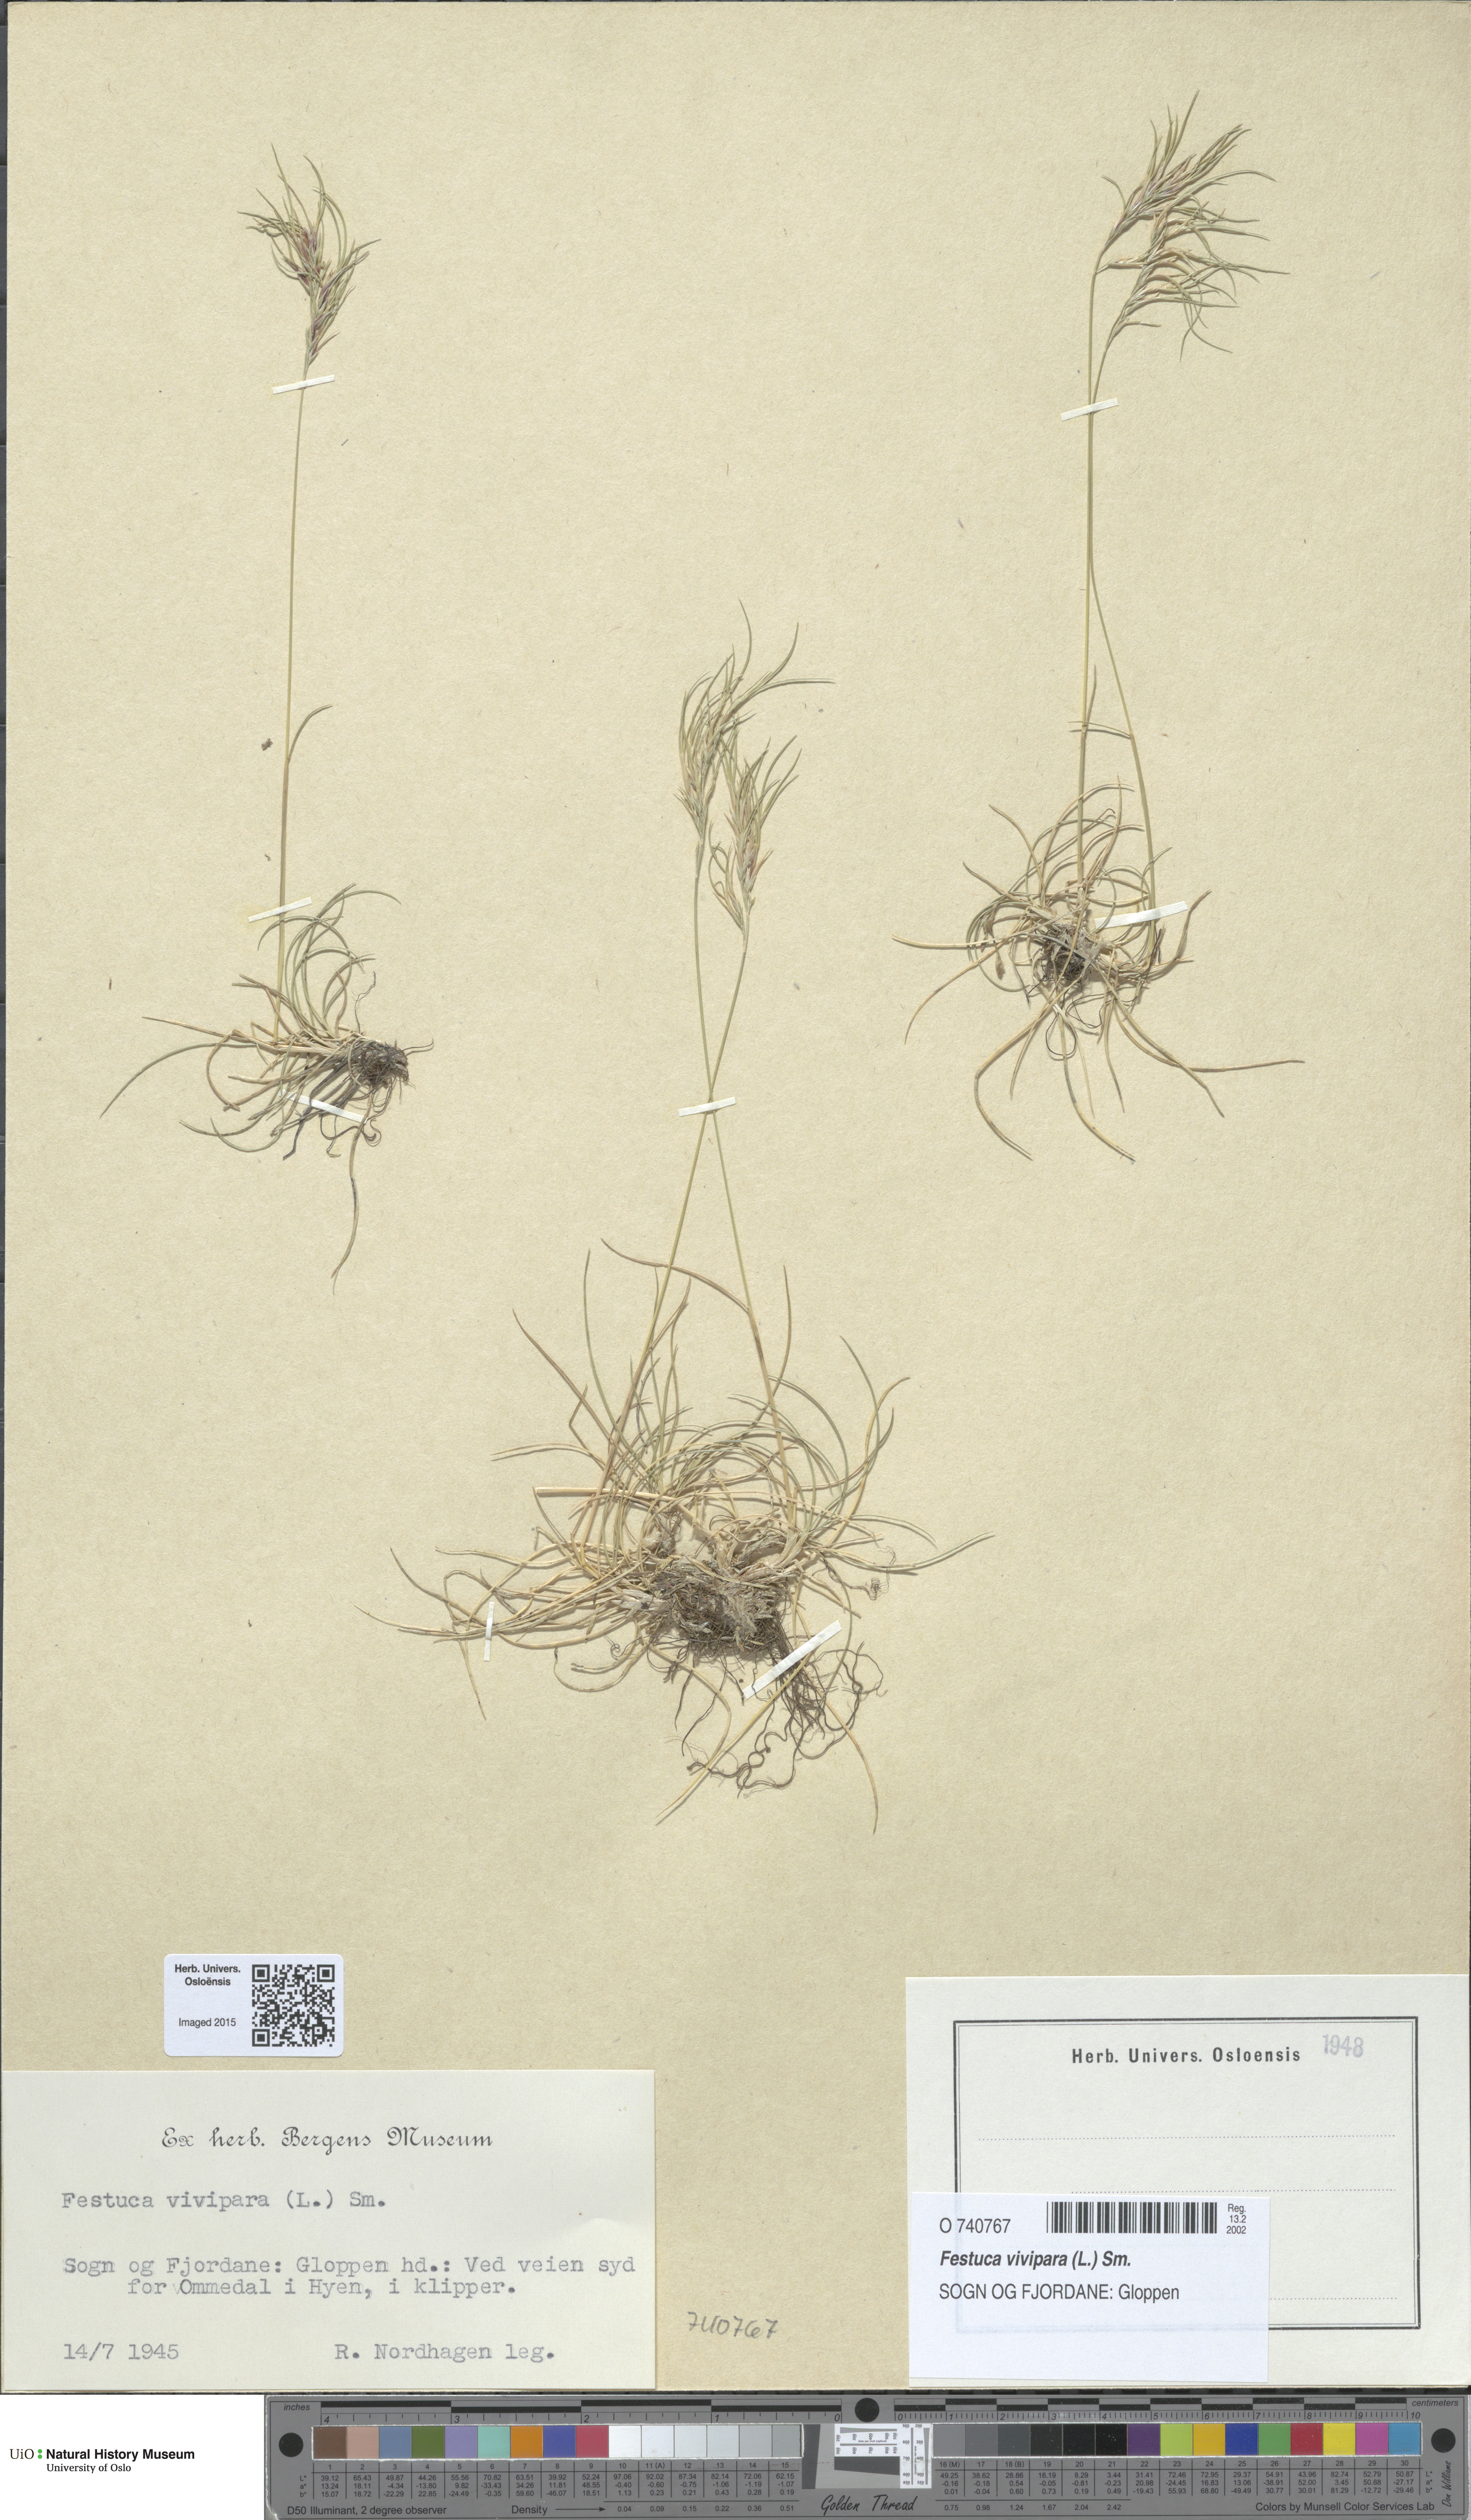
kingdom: Plantae
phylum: Tracheophyta
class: Liliopsida
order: Poales
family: Poaceae
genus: Festuca
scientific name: Festuca vivipara
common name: Viviparous sheep's-fescue
